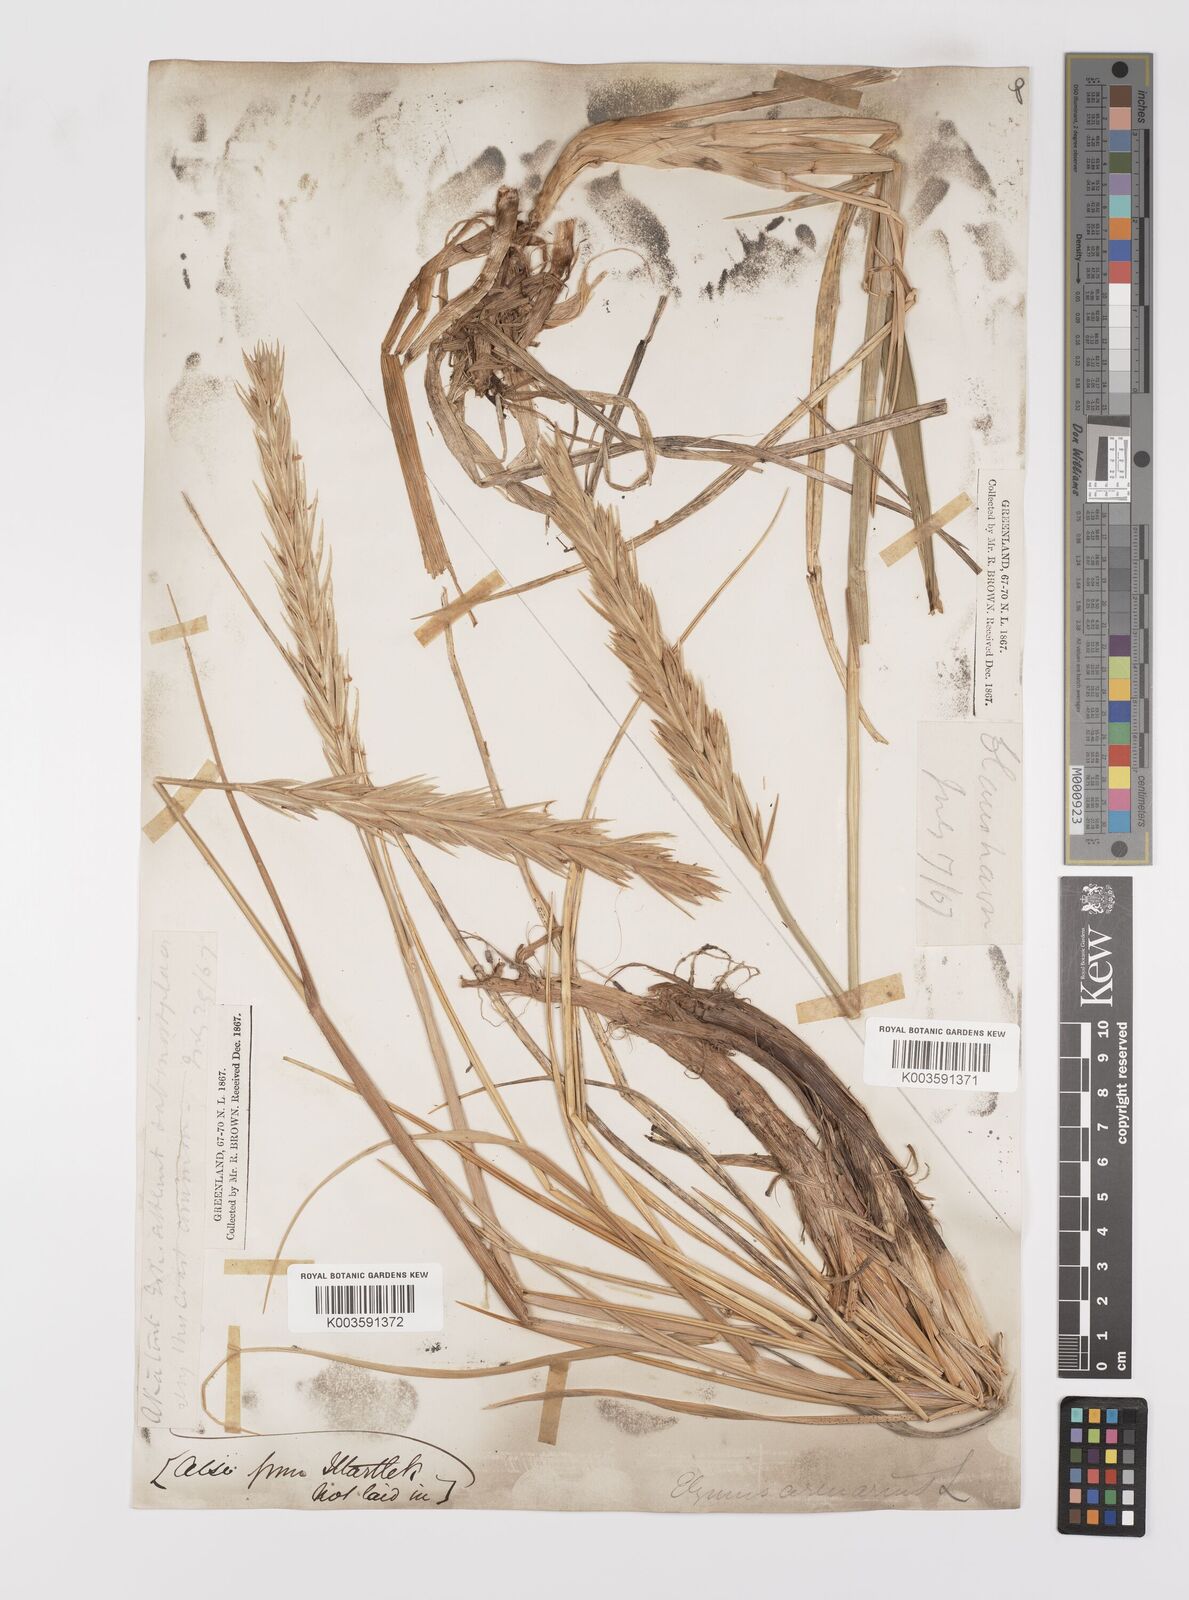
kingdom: Plantae
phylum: Tracheophyta
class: Liliopsida
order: Poales
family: Poaceae
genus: Leymus
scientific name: Leymus mollis
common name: American dune grass
